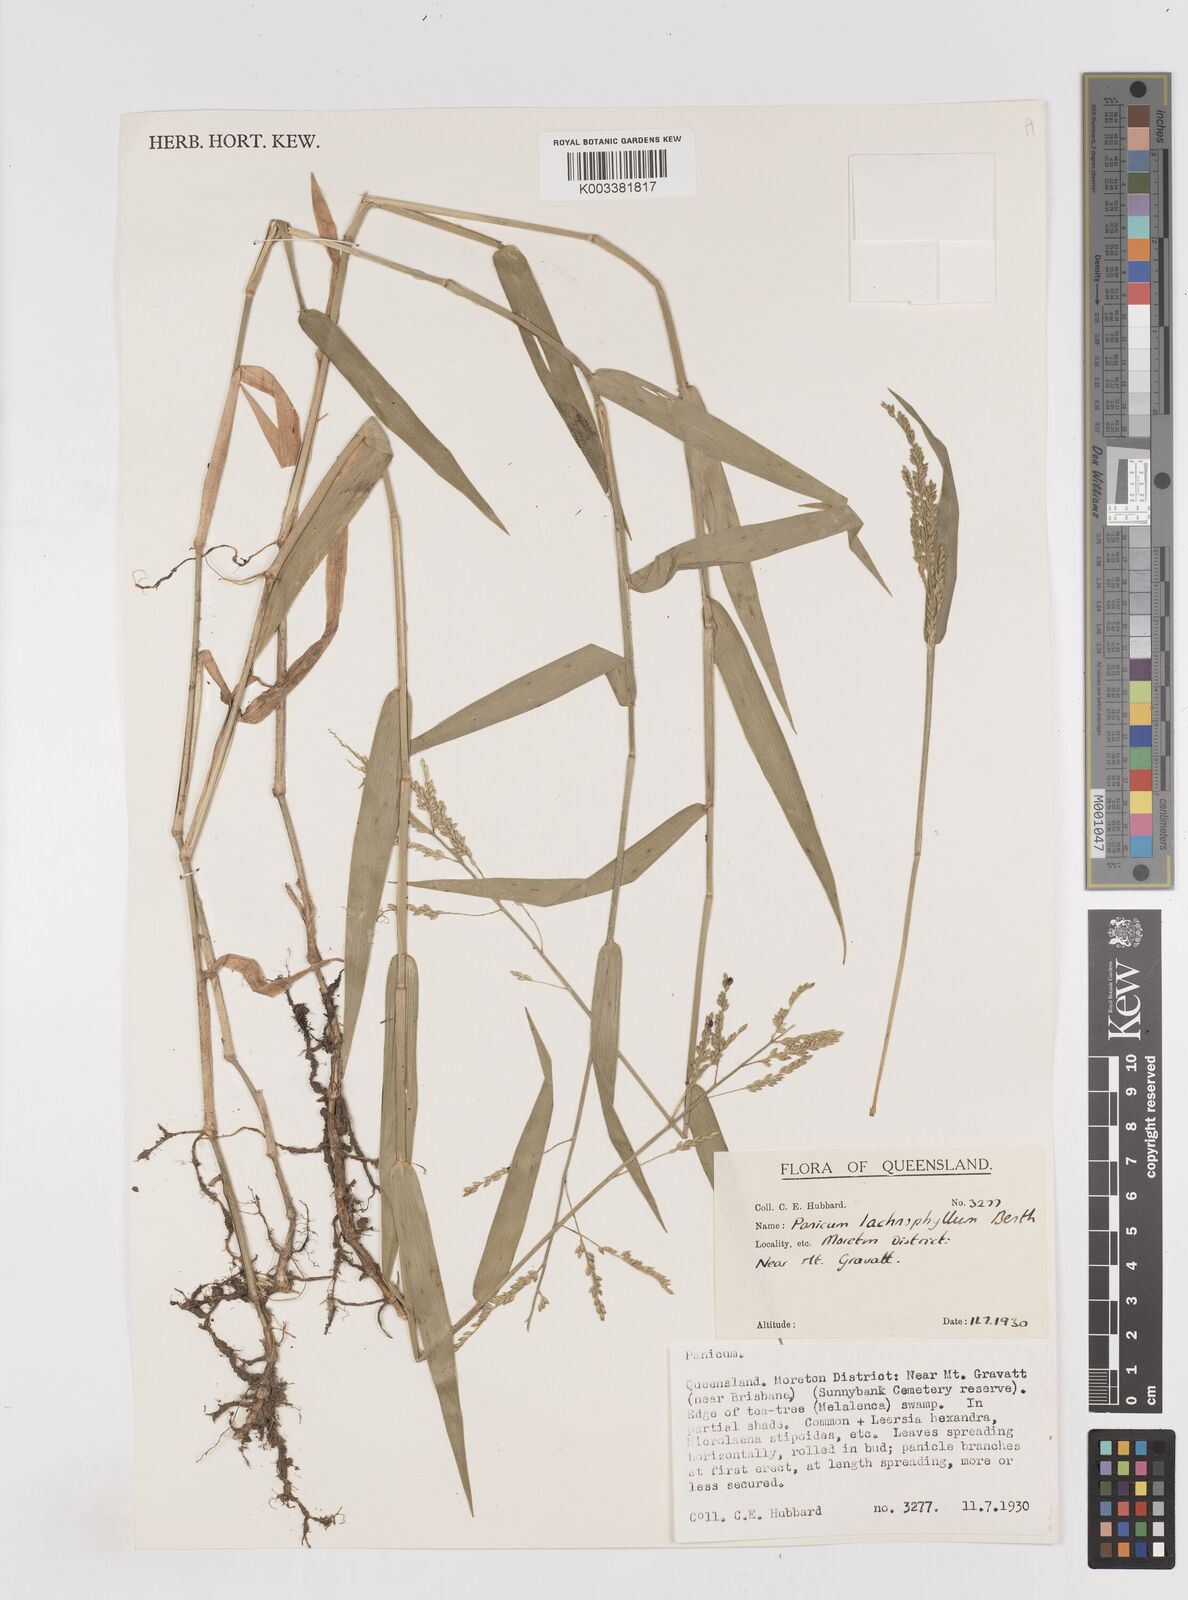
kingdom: Plantae
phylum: Tracheophyta
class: Liliopsida
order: Poales
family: Poaceae
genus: Entolasia
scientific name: Entolasia
